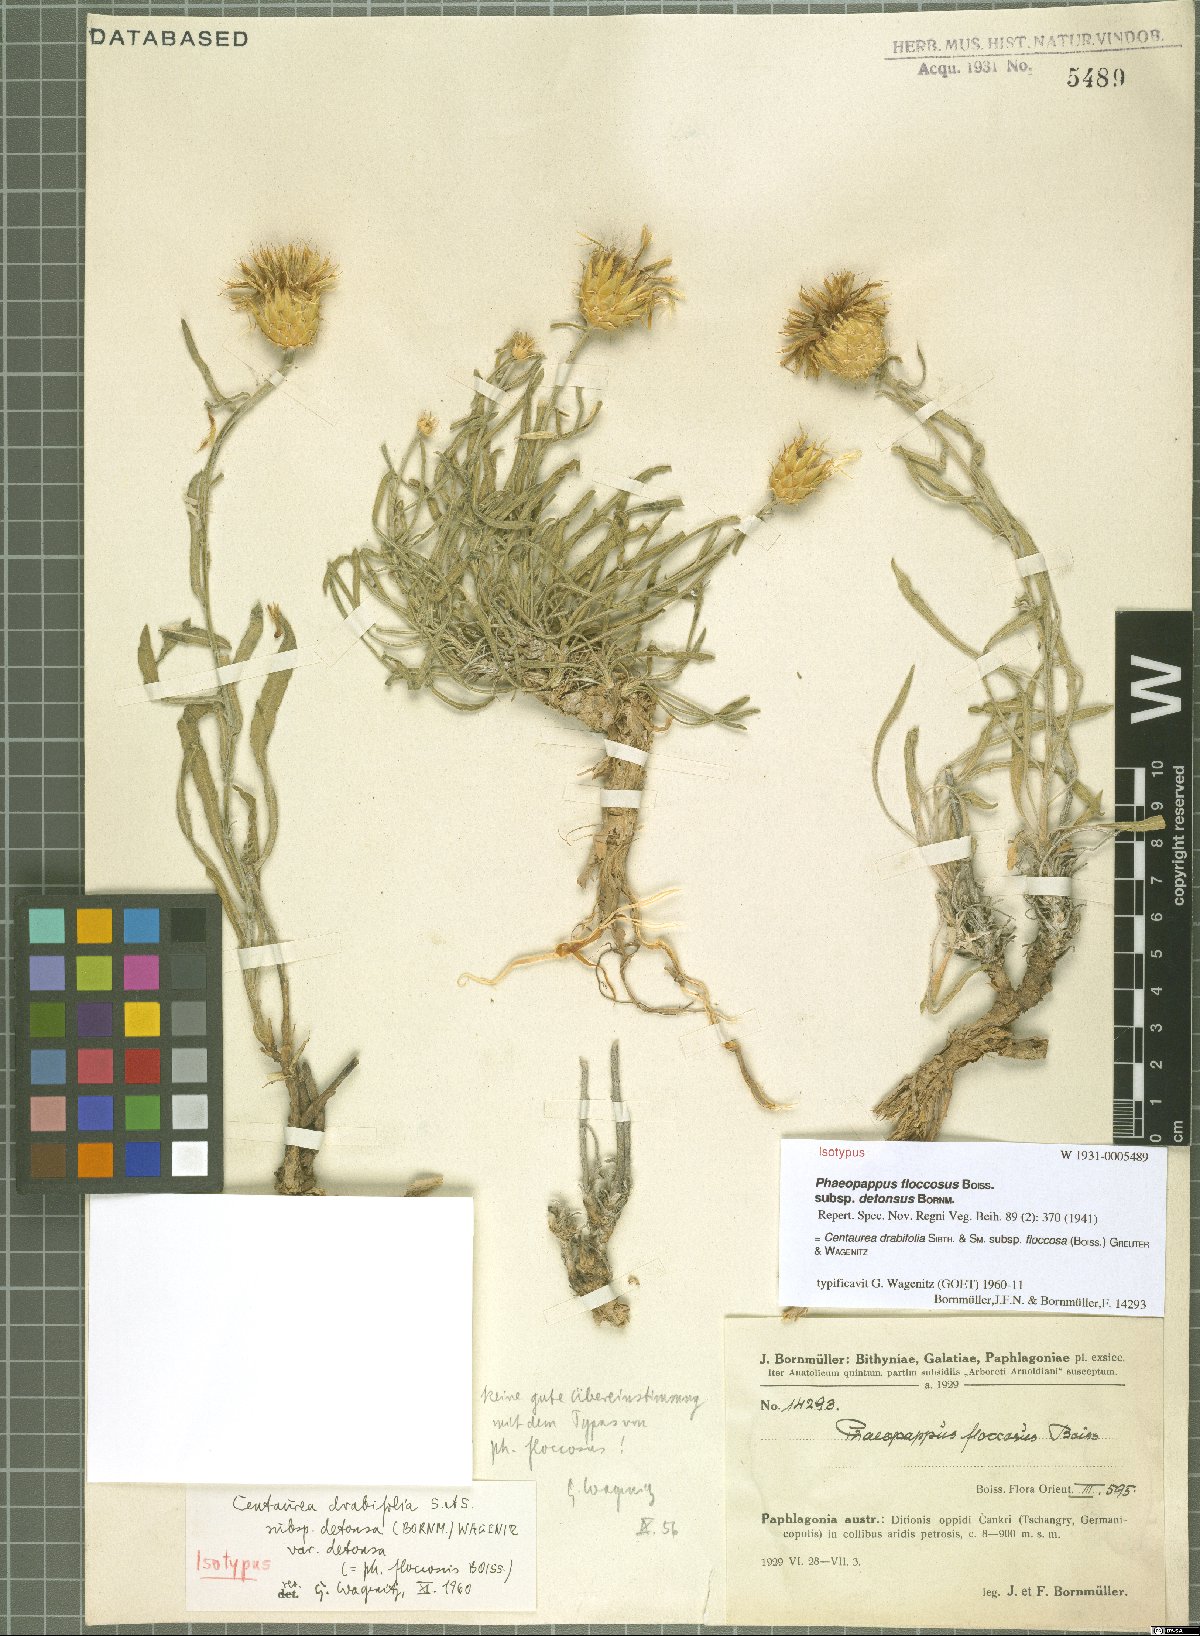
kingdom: Plantae
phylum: Tracheophyta
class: Magnoliopsida
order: Asterales
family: Asteraceae
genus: Centaurea
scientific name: Centaurea kotschyi
